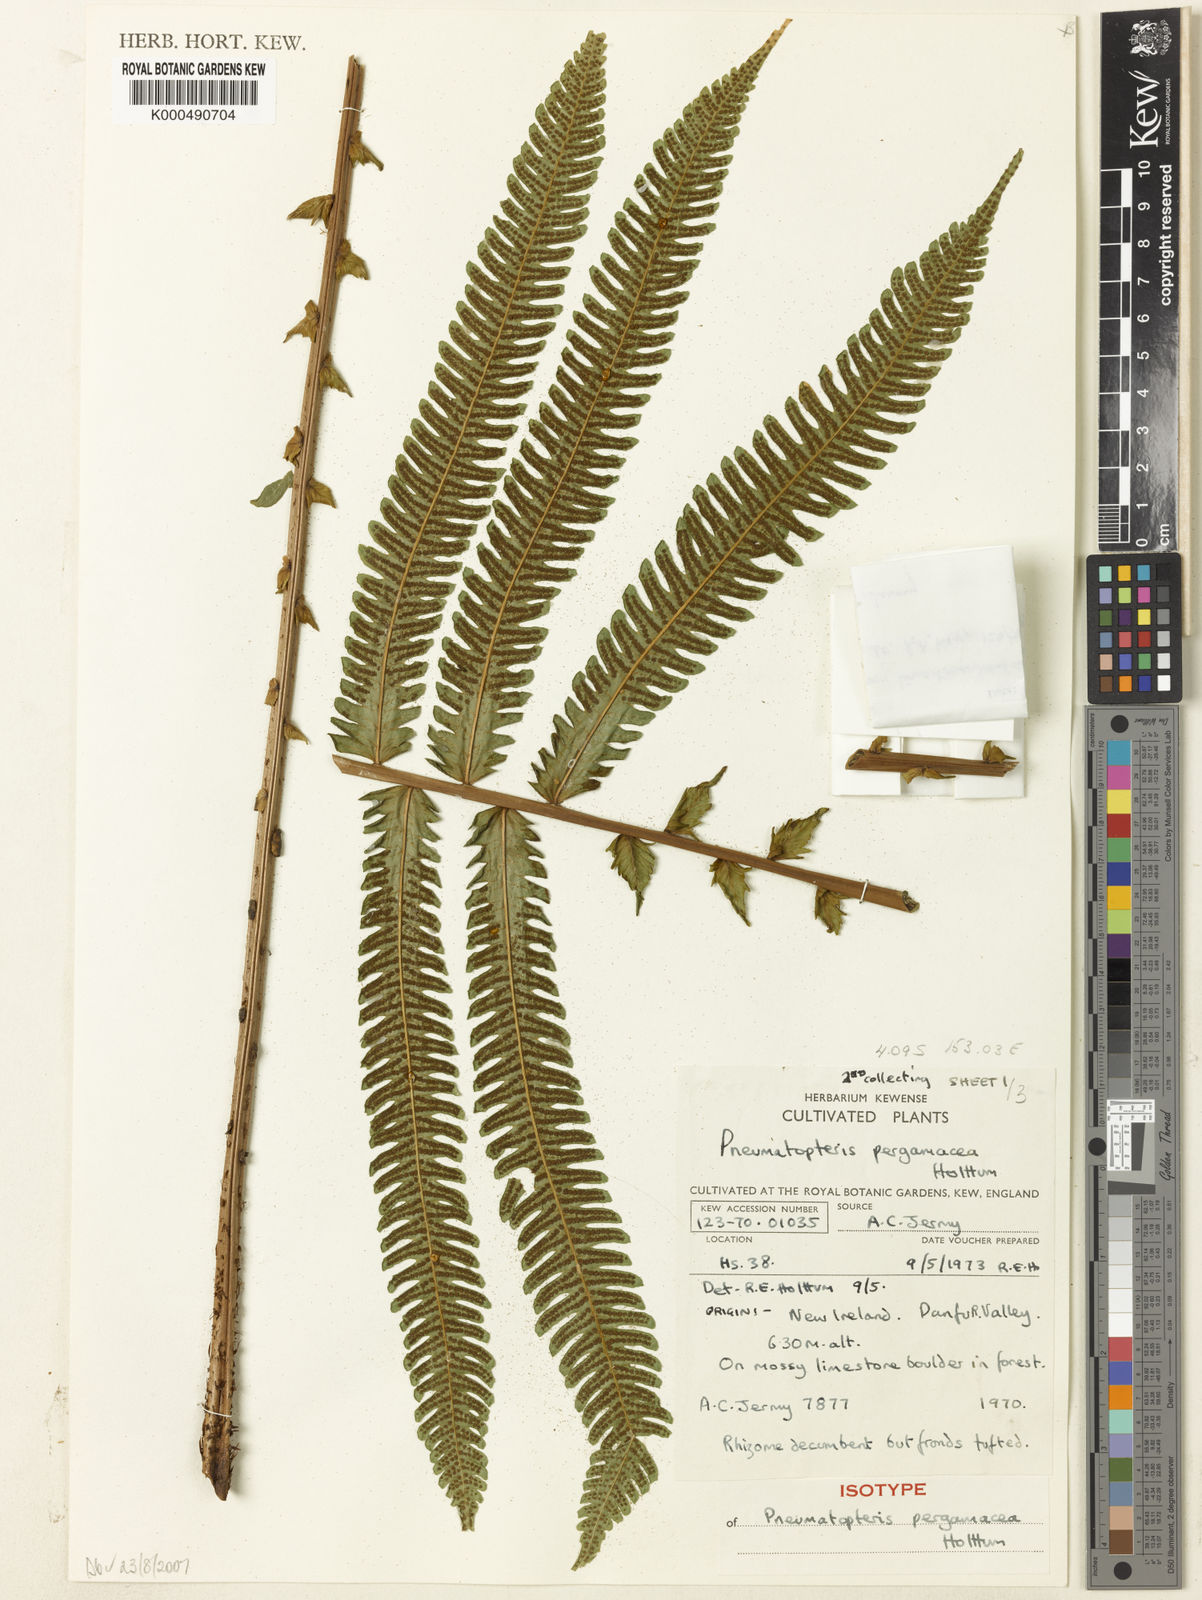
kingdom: Plantae
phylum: Tracheophyta
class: Polypodiopsida
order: Polypodiales
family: Thelypteridaceae
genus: Reholttumia
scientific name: Reholttumia pergamacea
